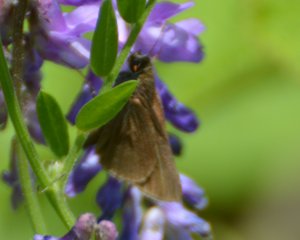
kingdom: Animalia
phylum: Arthropoda
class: Insecta
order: Lepidoptera
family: Hesperiidae
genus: Euphyes
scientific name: Euphyes vestris
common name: Dun Skipper
